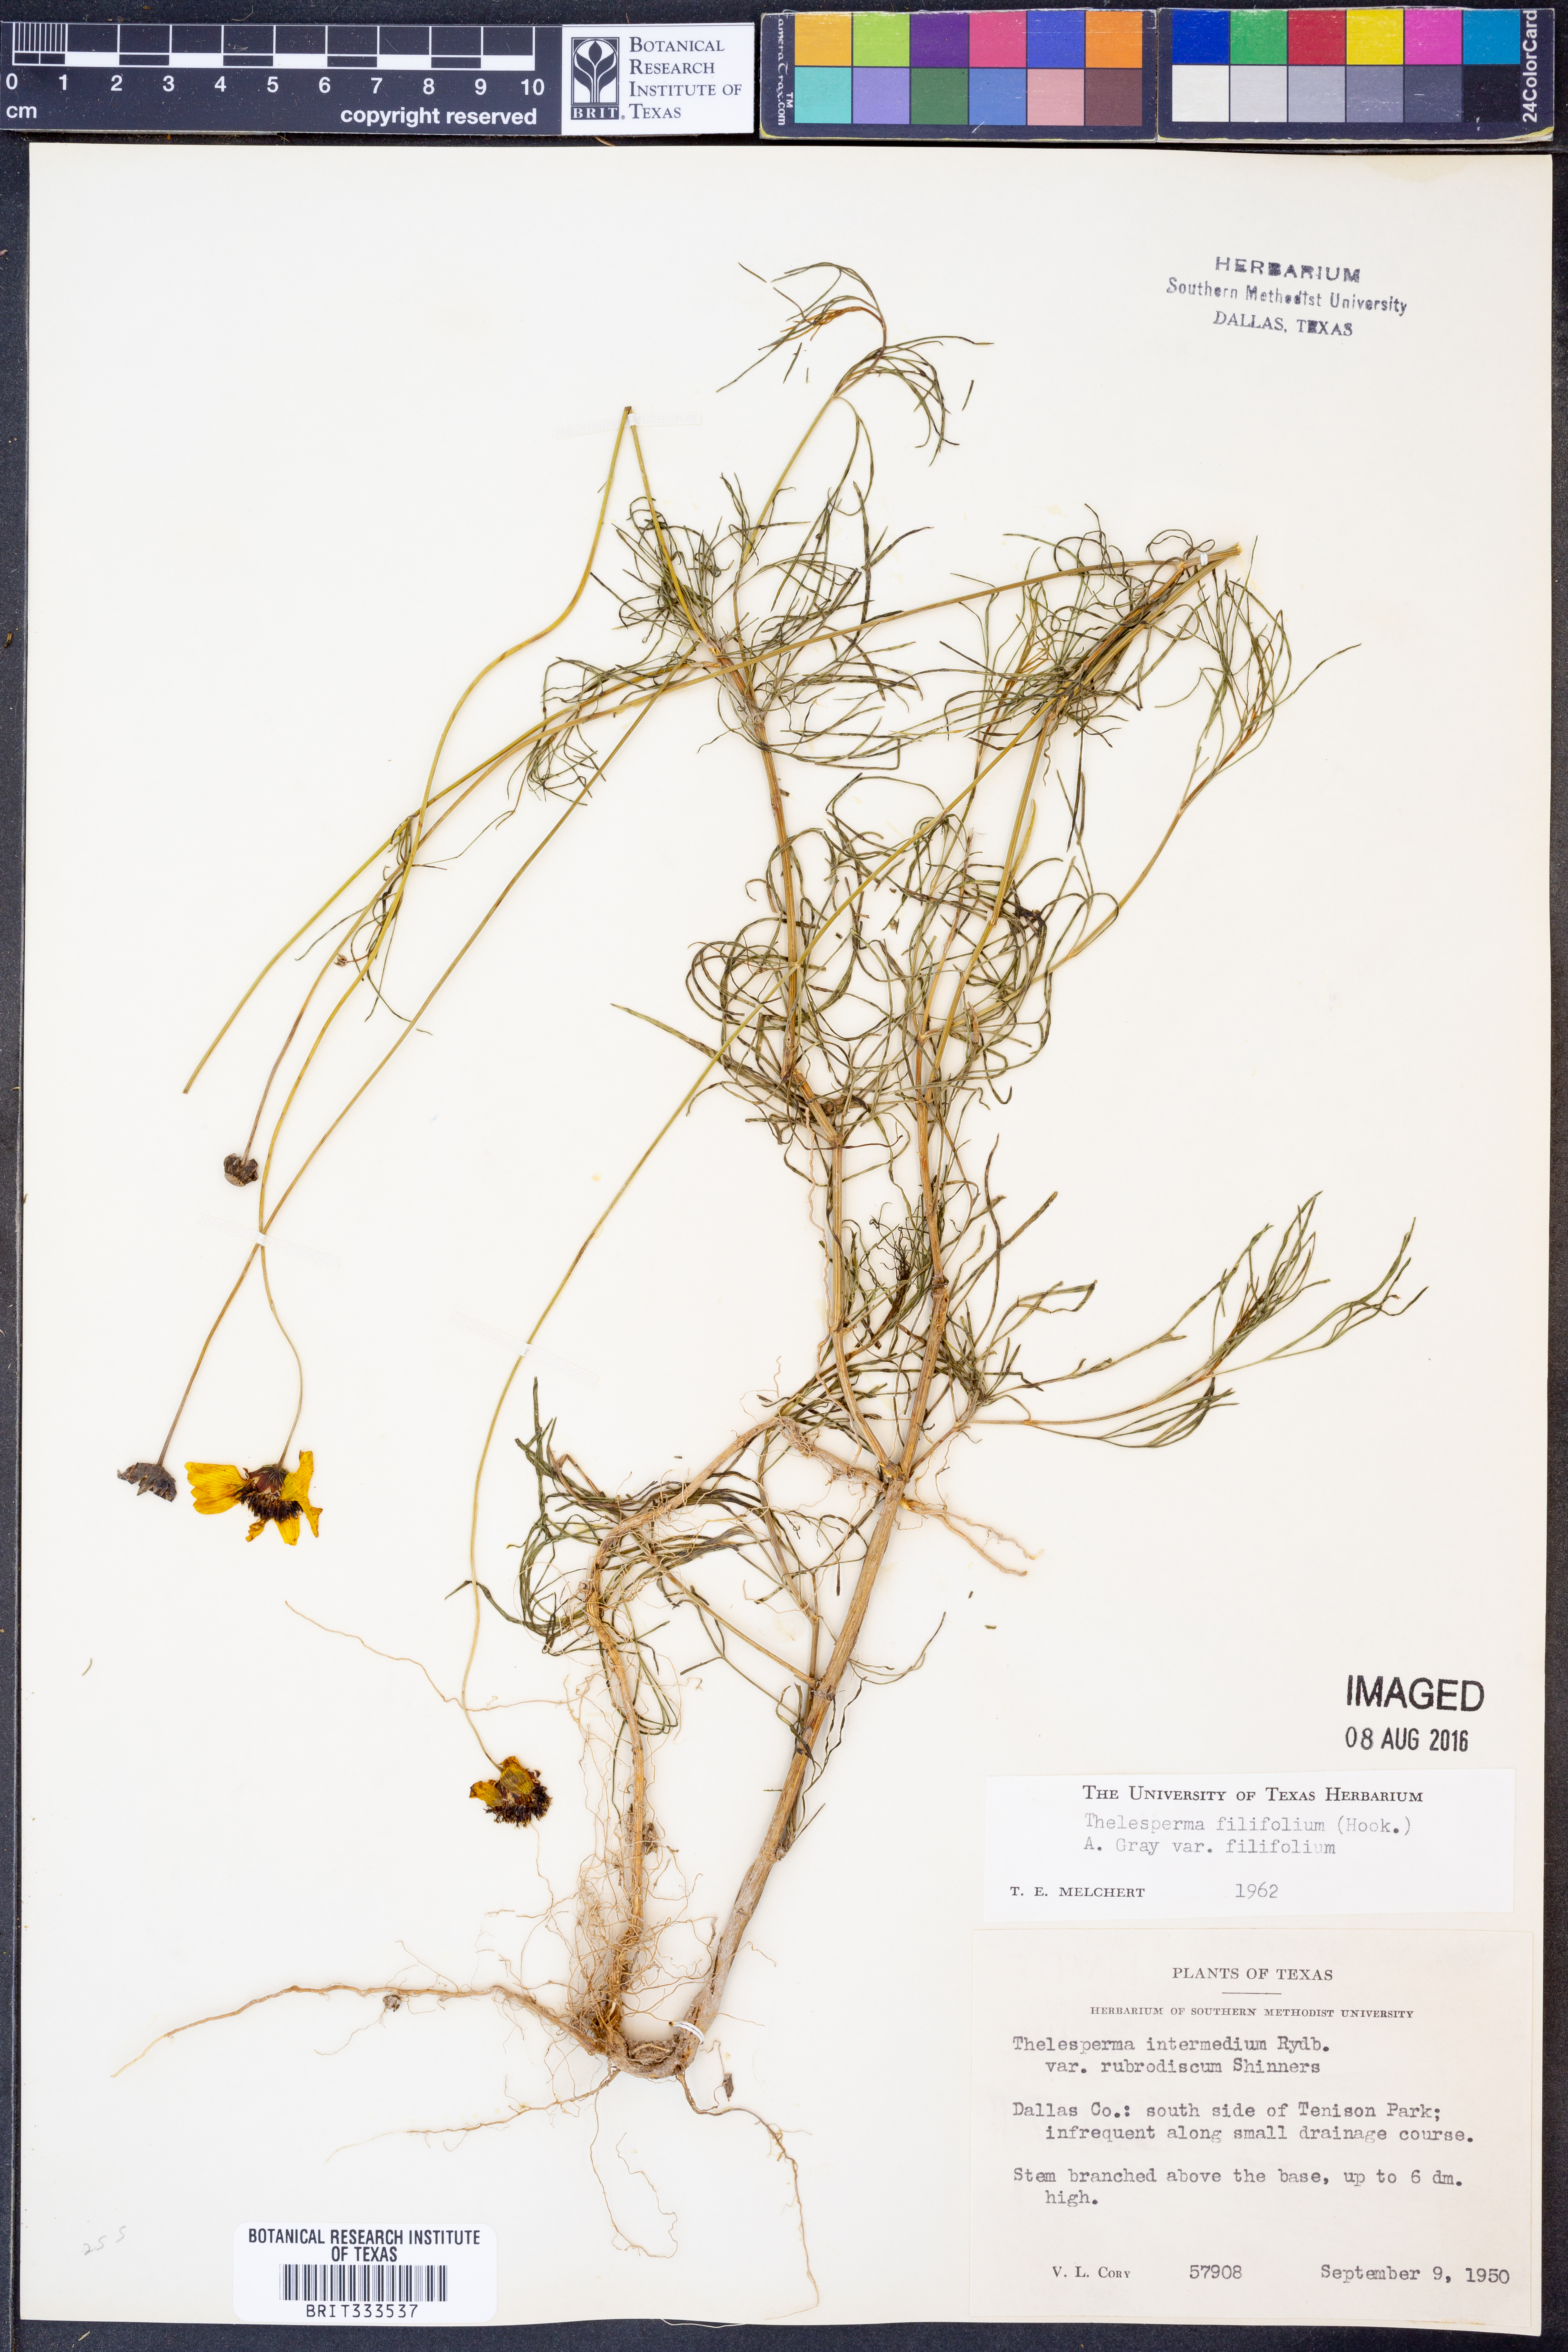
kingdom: Plantae
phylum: Tracheophyta
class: Magnoliopsida
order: Asterales
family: Asteraceae
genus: Thelesperma
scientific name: Thelesperma filifolium
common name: Stiff greenthread
